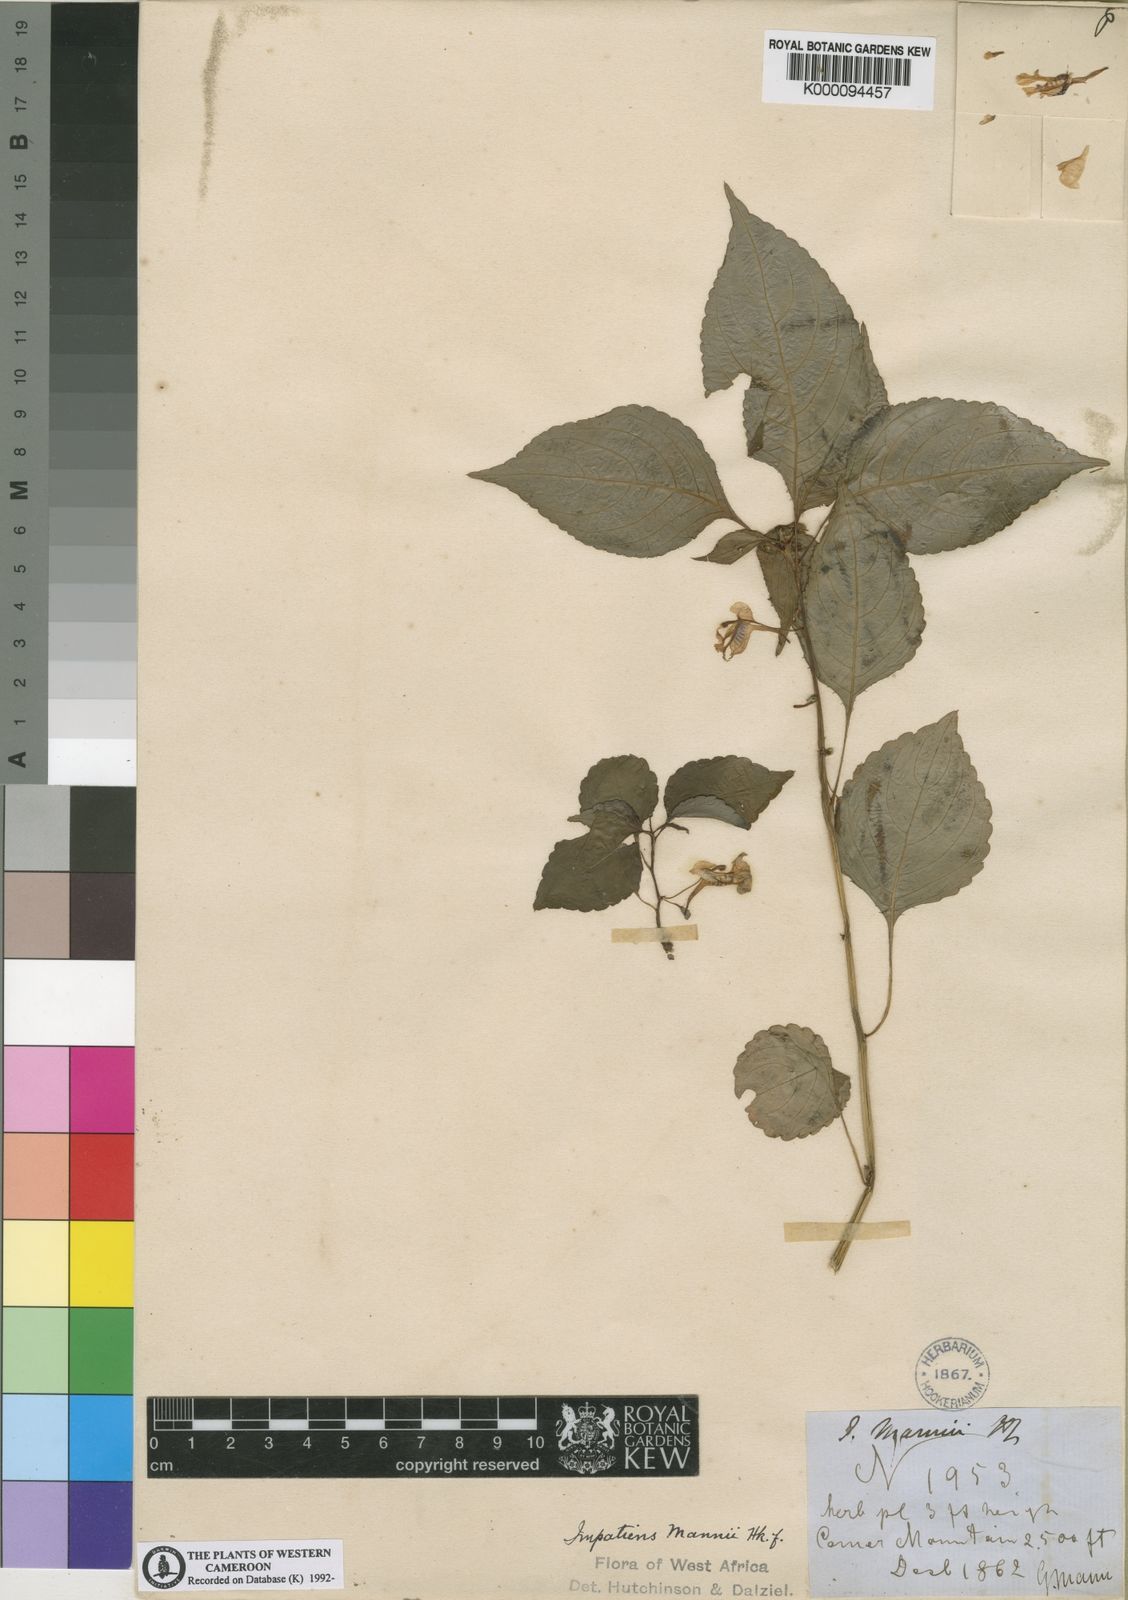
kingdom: Plantae
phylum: Tracheophyta
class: Magnoliopsida
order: Ericales
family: Balsaminaceae
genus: Impatiens
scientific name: Impatiens
